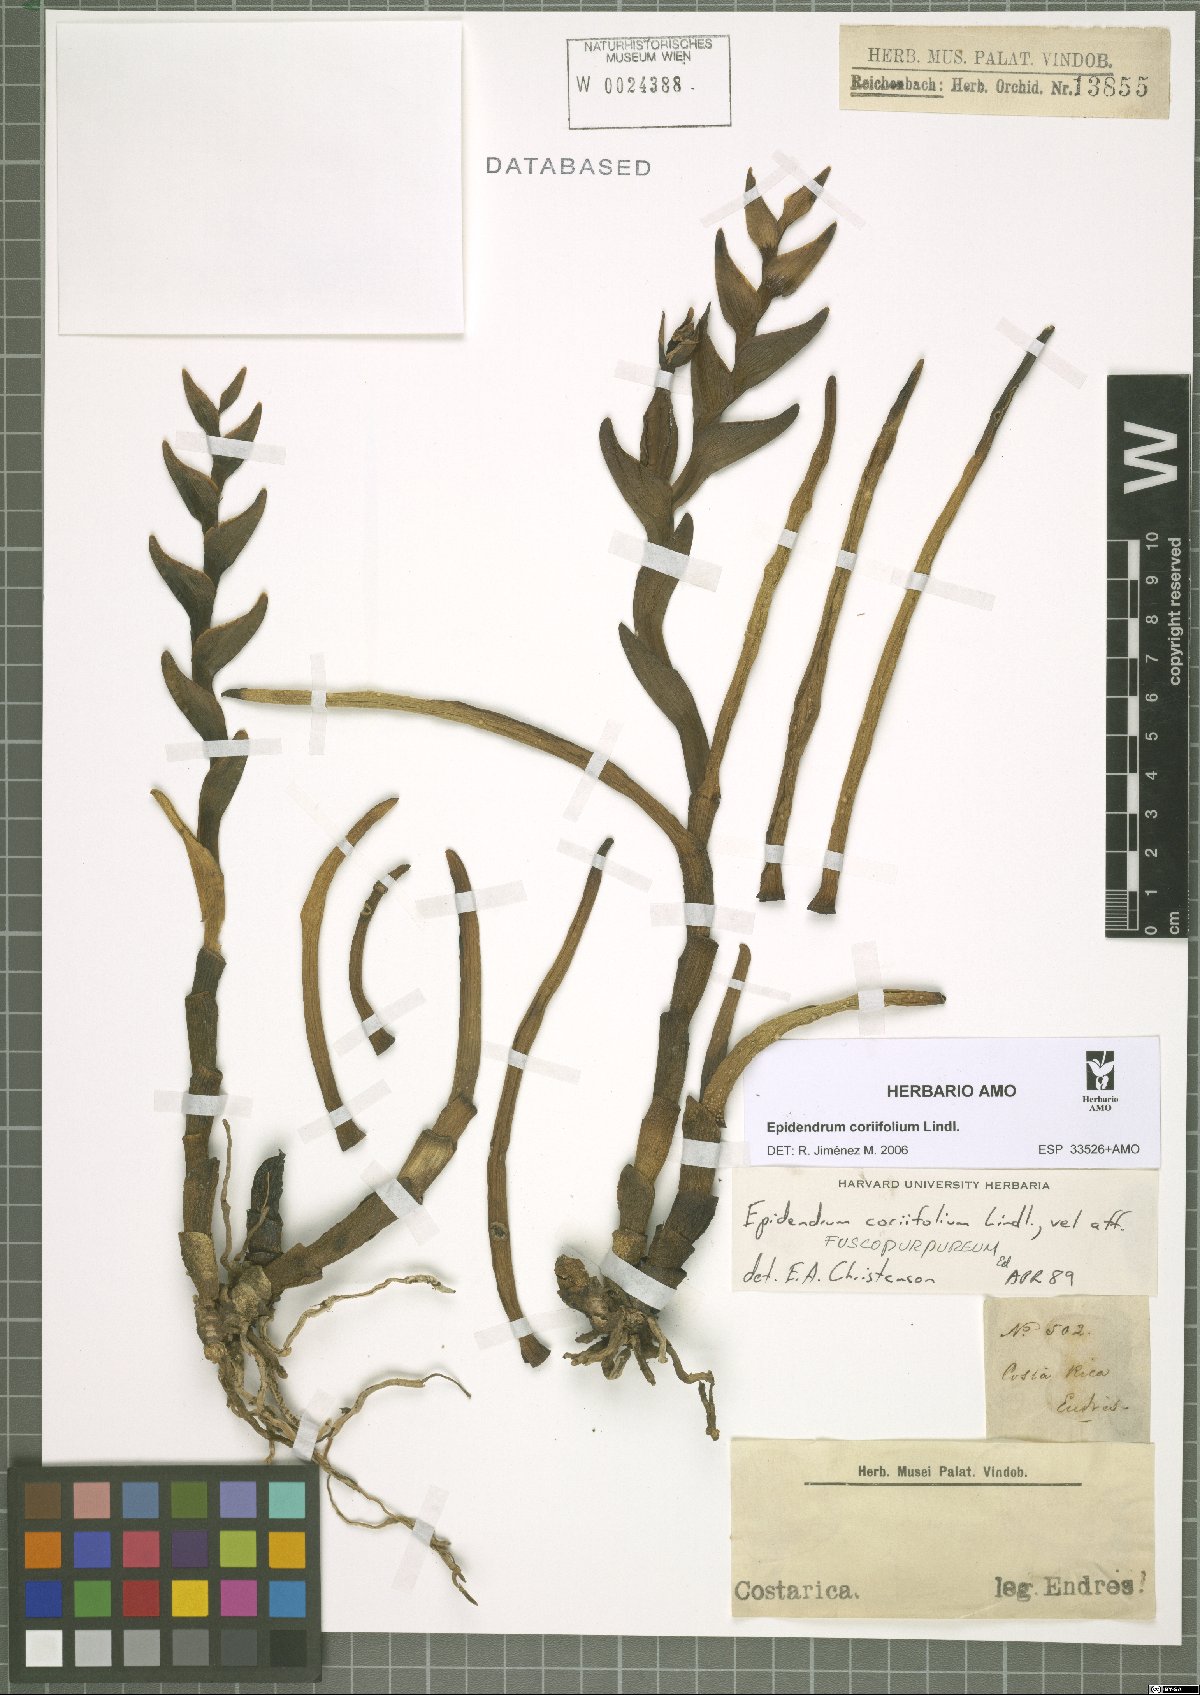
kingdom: Plantae
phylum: Tracheophyta
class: Liliopsida
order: Asparagales
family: Orchidaceae
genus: Epidendrum
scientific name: Epidendrum coriifolium
